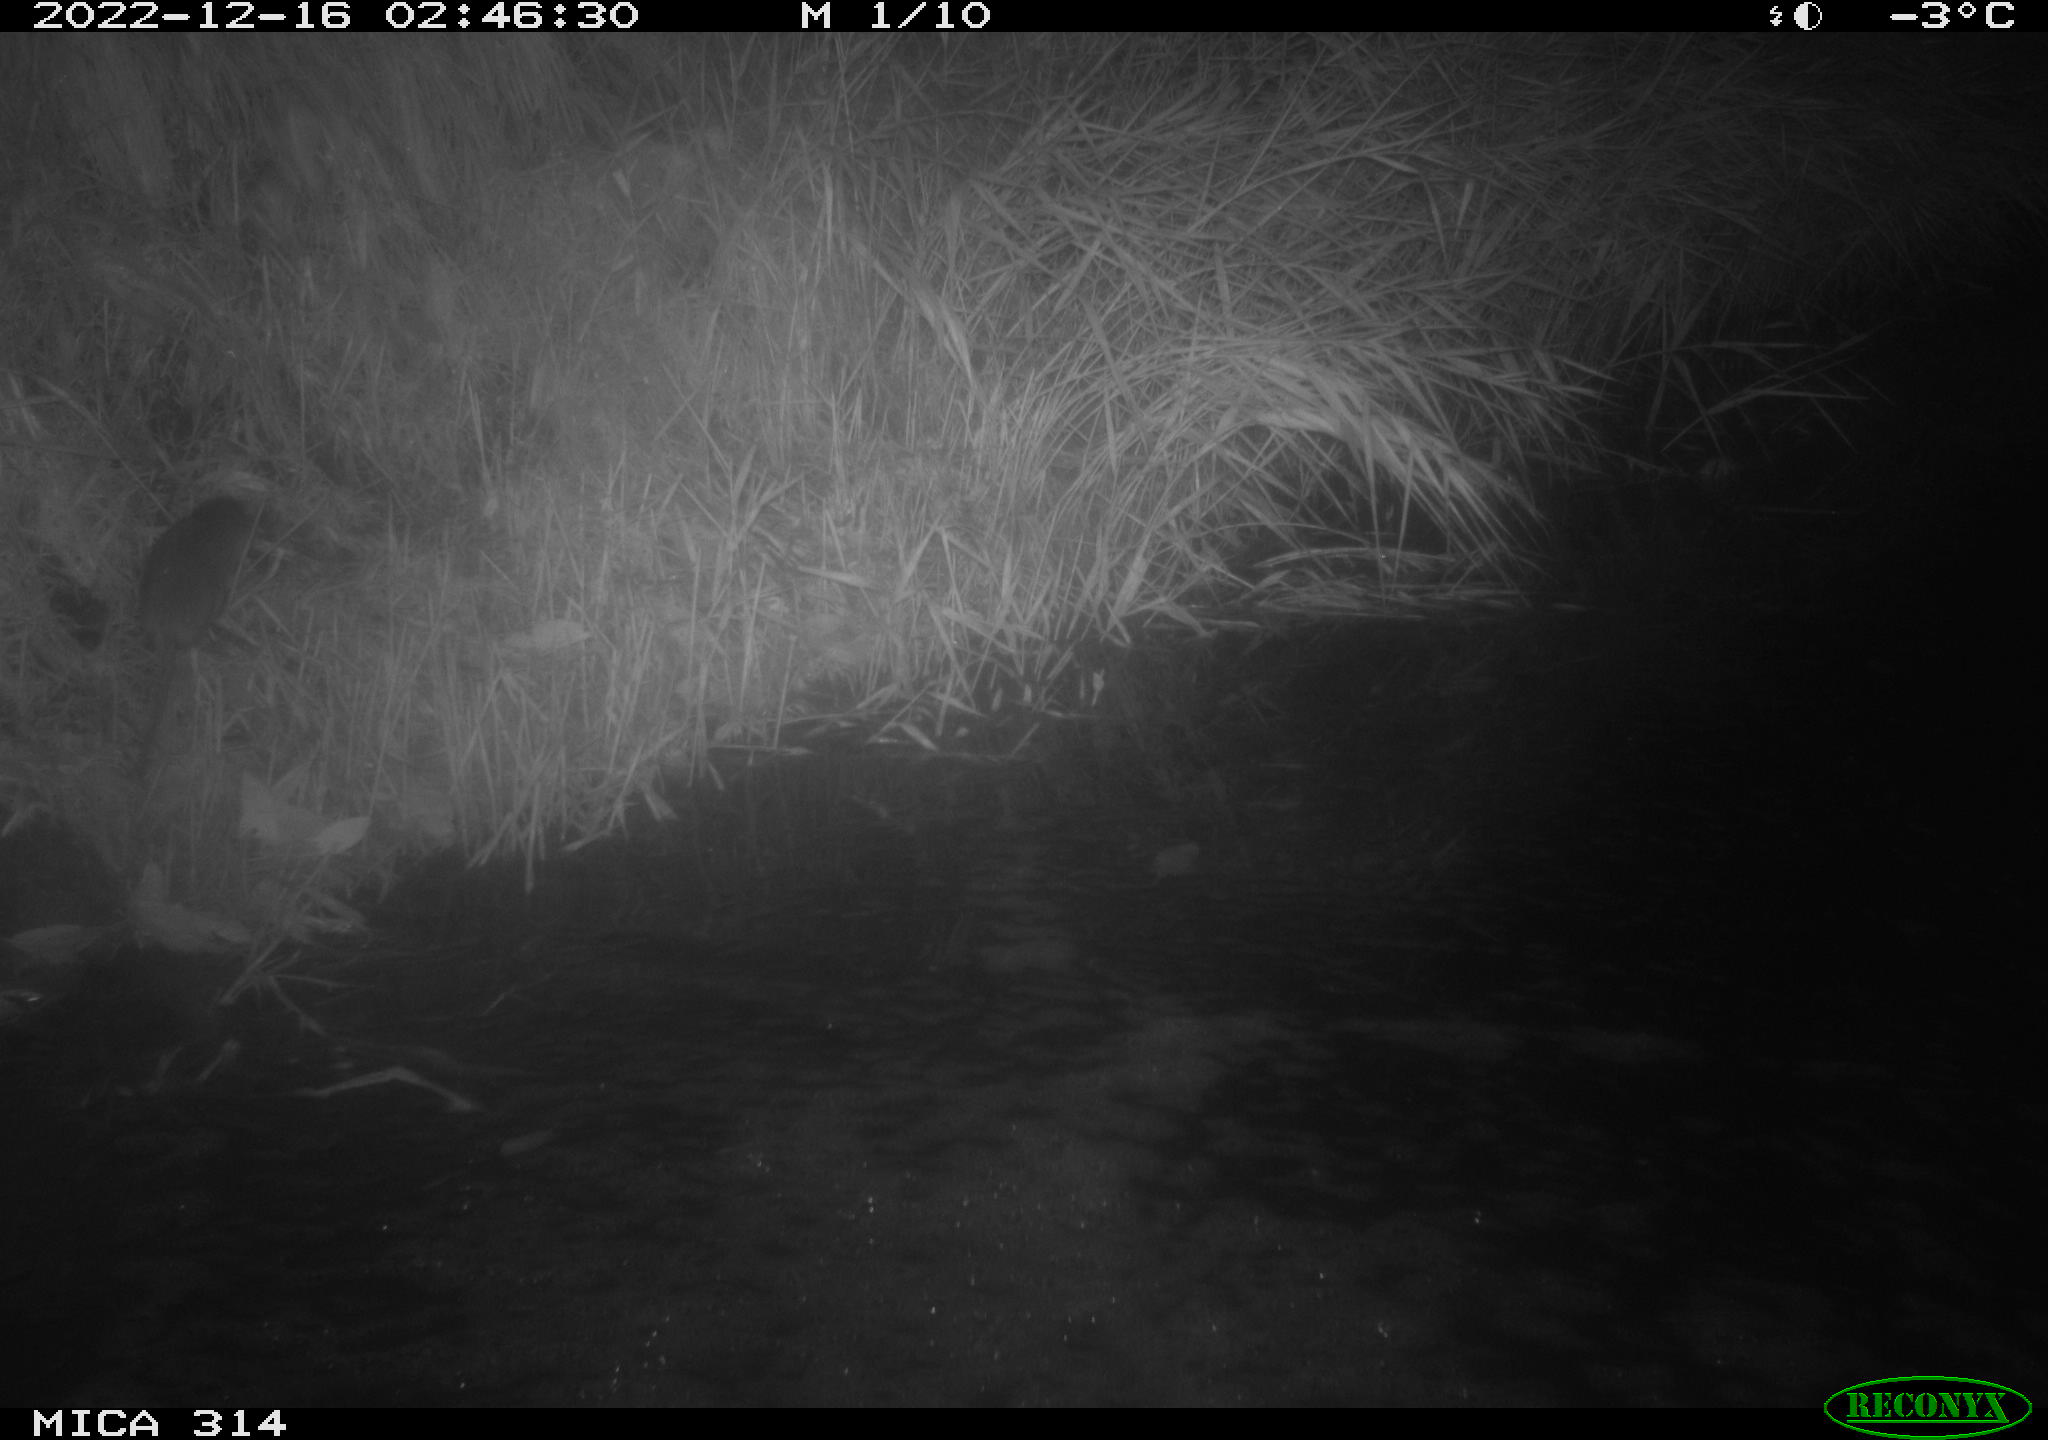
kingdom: Animalia
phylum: Chordata
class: Mammalia
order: Rodentia
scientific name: Rodentia
